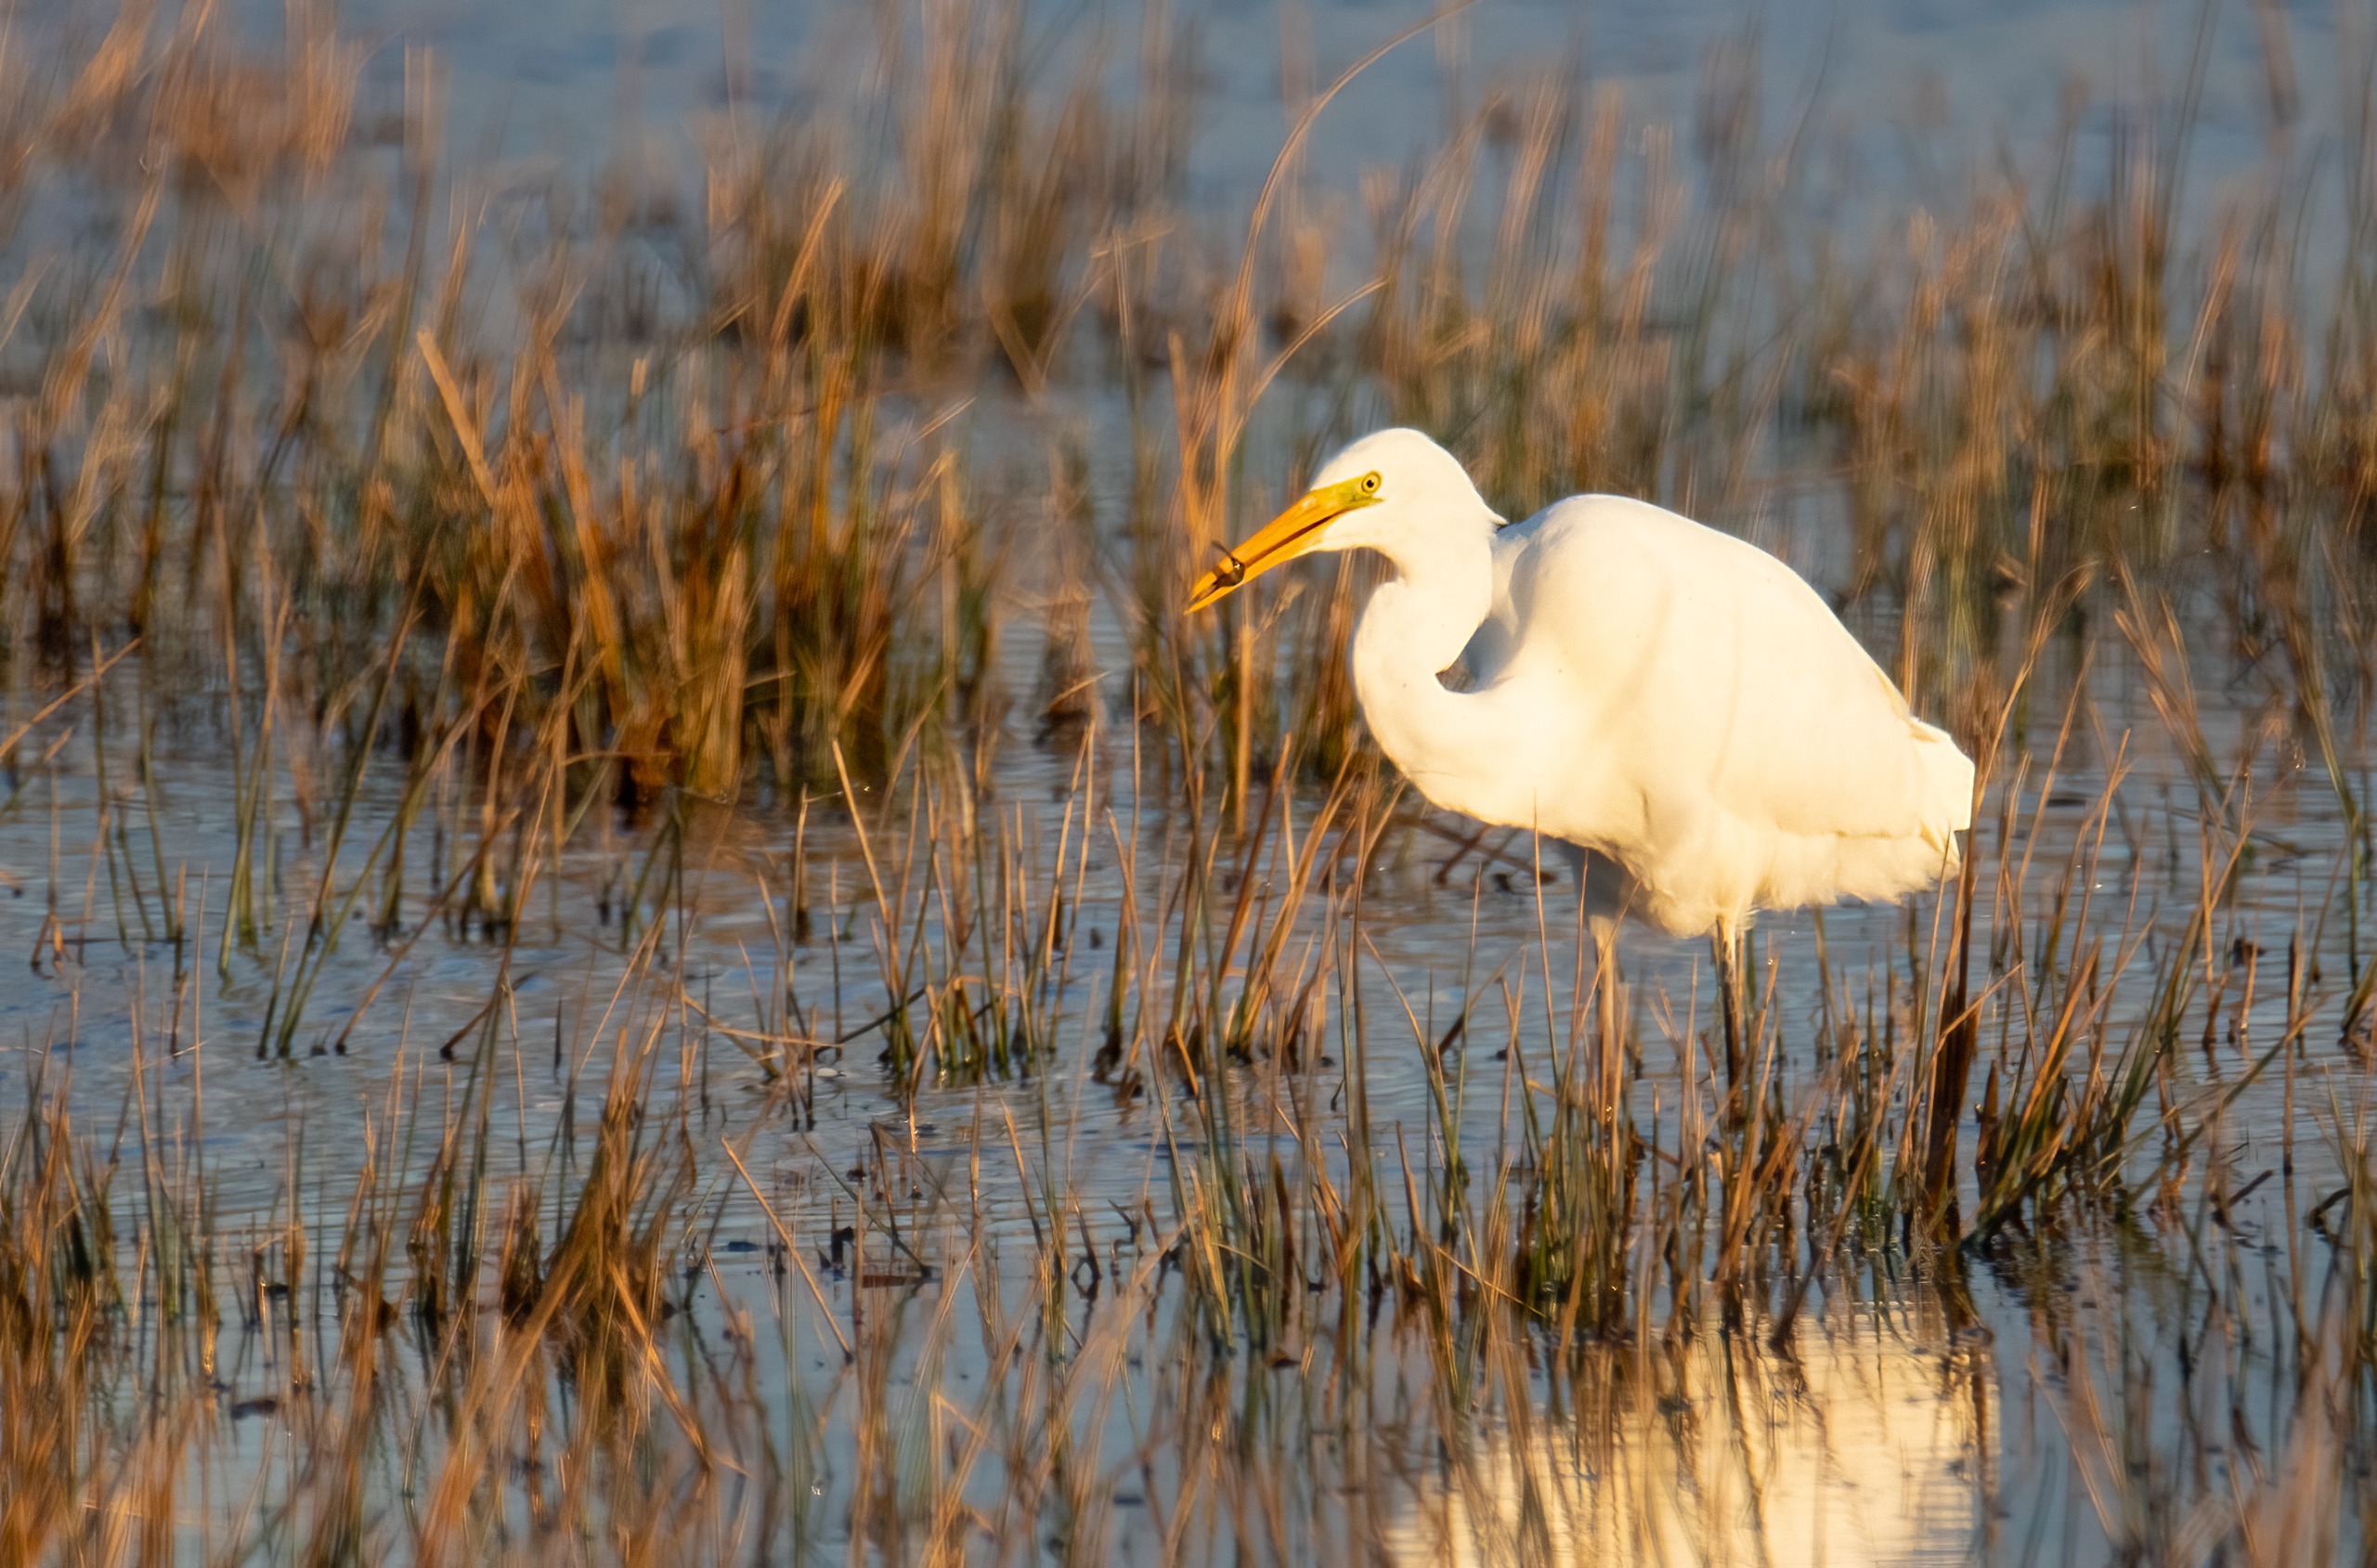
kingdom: Animalia
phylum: Chordata
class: Aves
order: Pelecaniformes
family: Ardeidae
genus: Ardea
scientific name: Ardea alba
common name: Sølvhejre
